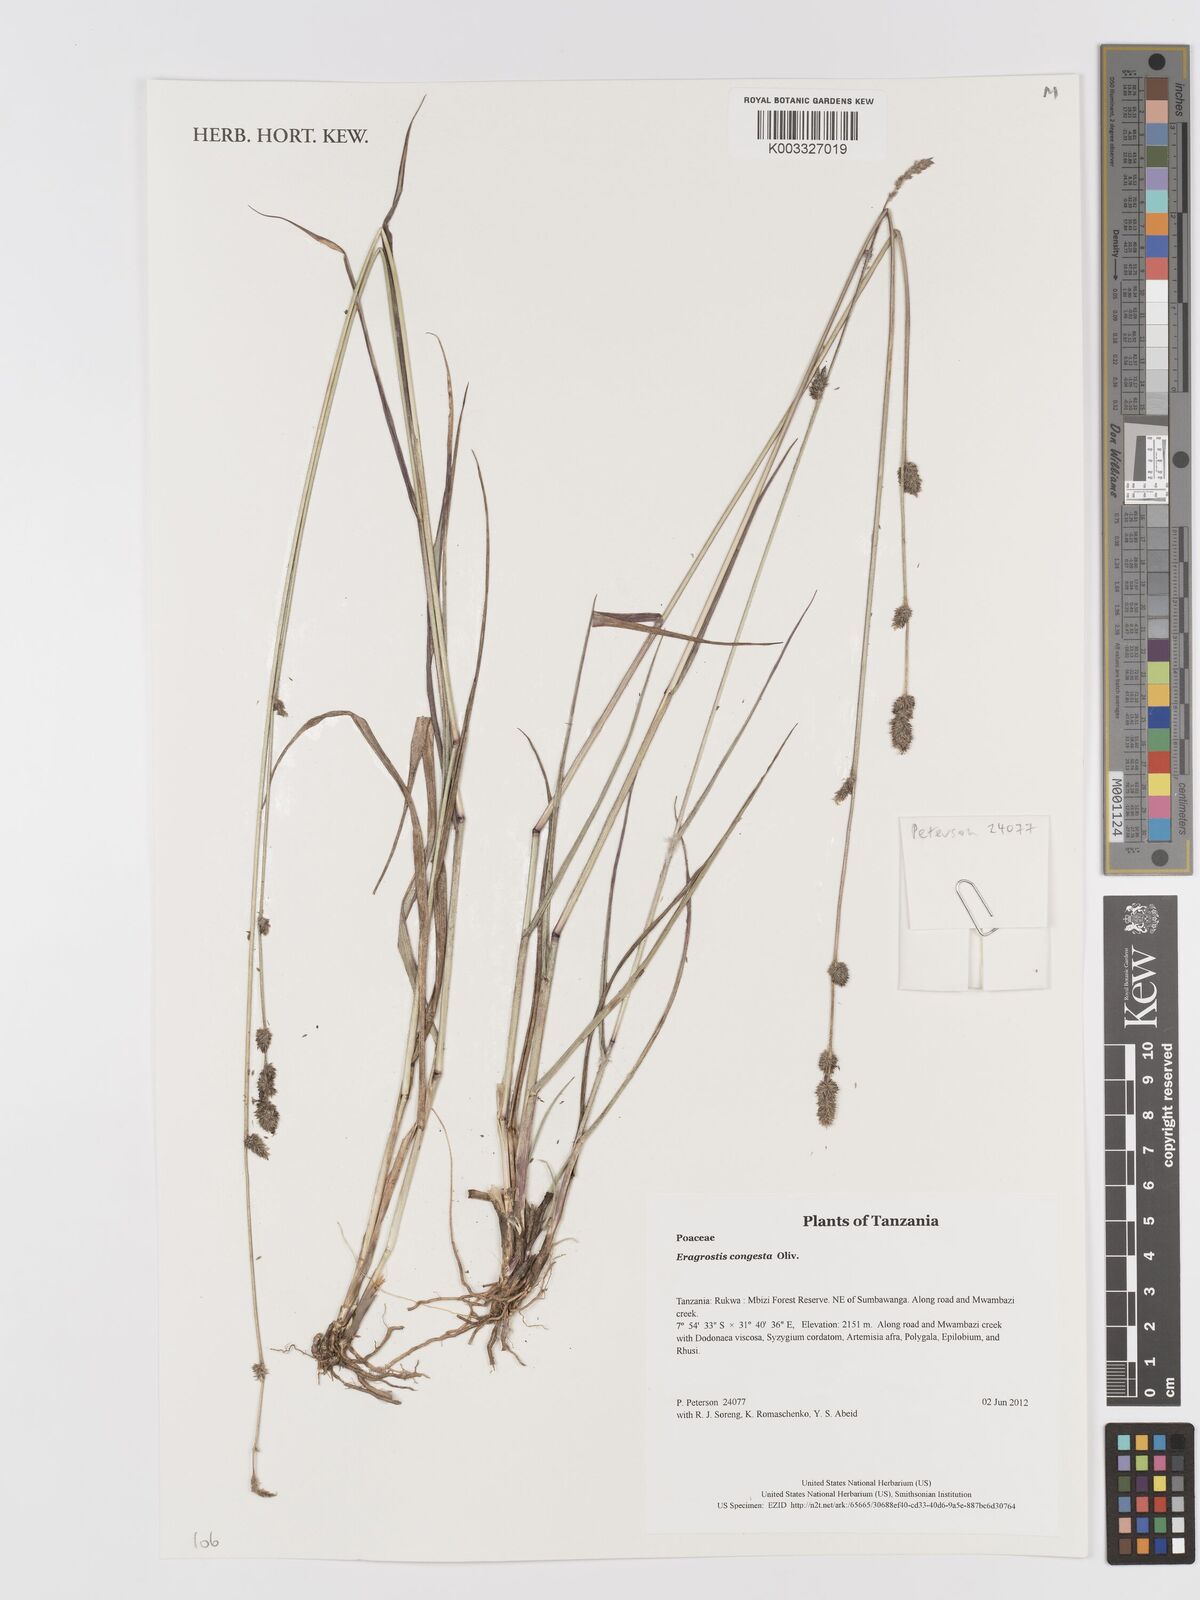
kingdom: Plantae
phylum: Tracheophyta
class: Liliopsida
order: Poales
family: Poaceae
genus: Eragrostis
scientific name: Eragrostis congesta
